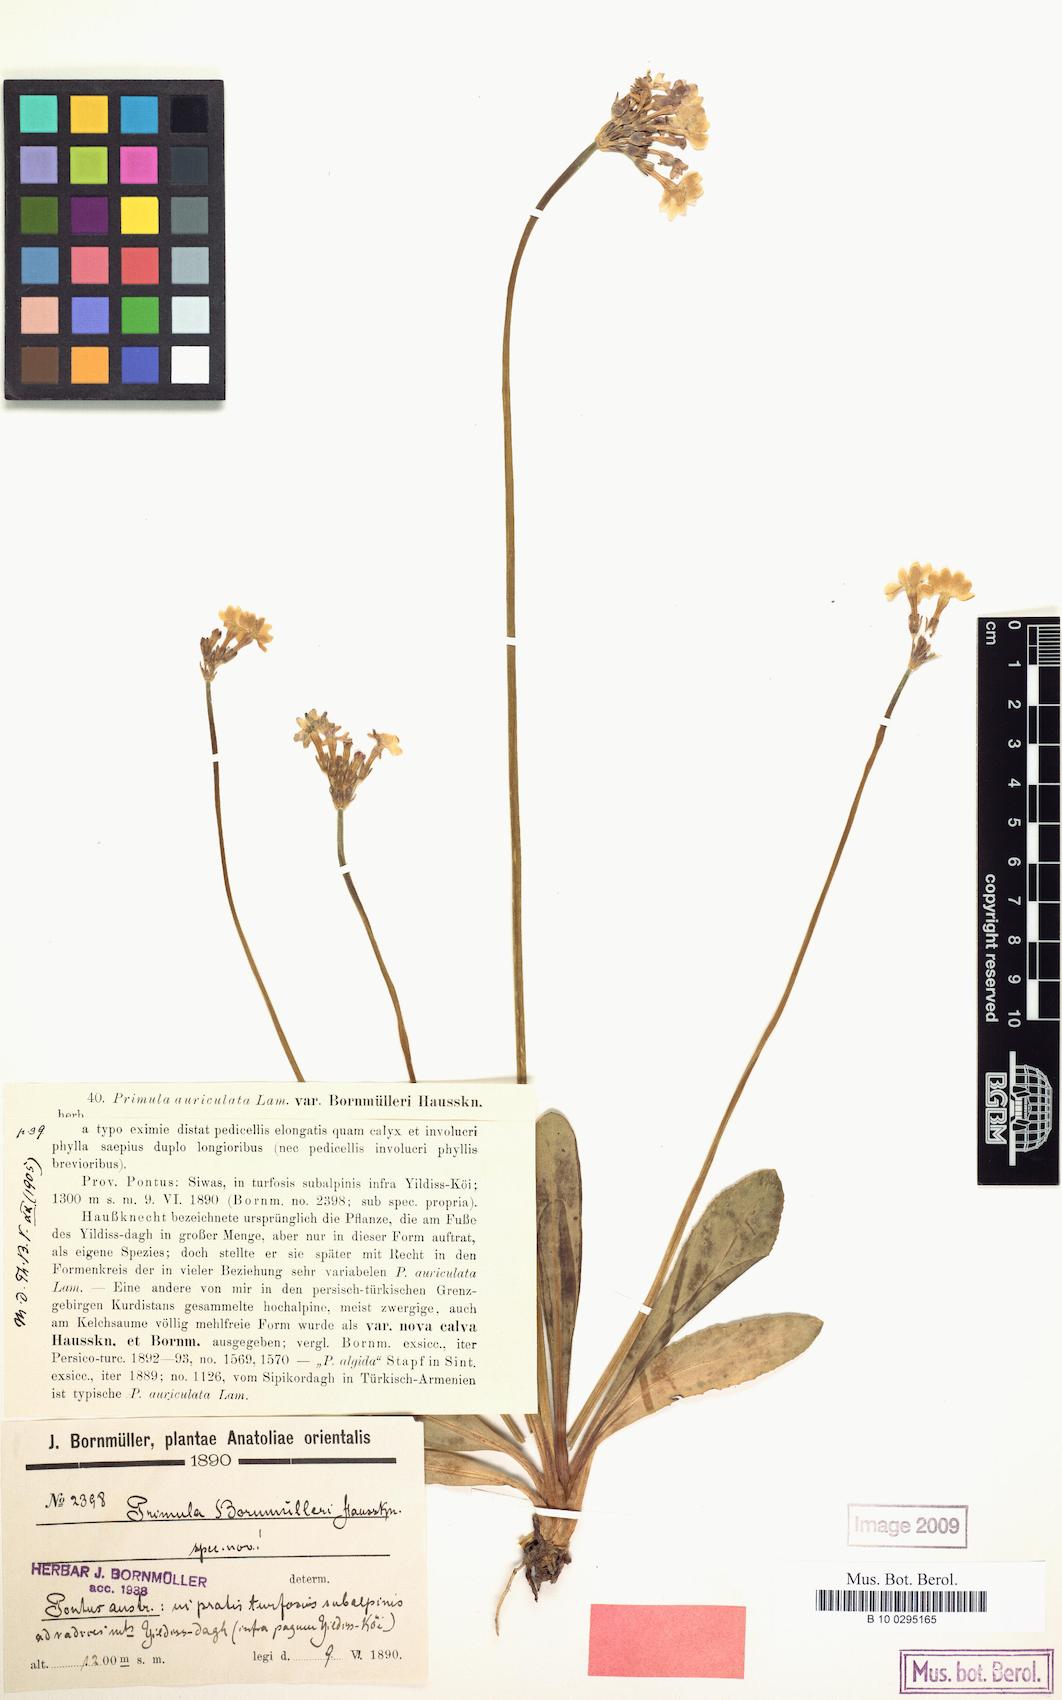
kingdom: Plantae
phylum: Tracheophyta
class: Magnoliopsida
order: Ericales
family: Primulaceae
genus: Primula
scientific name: Primula auriculata
